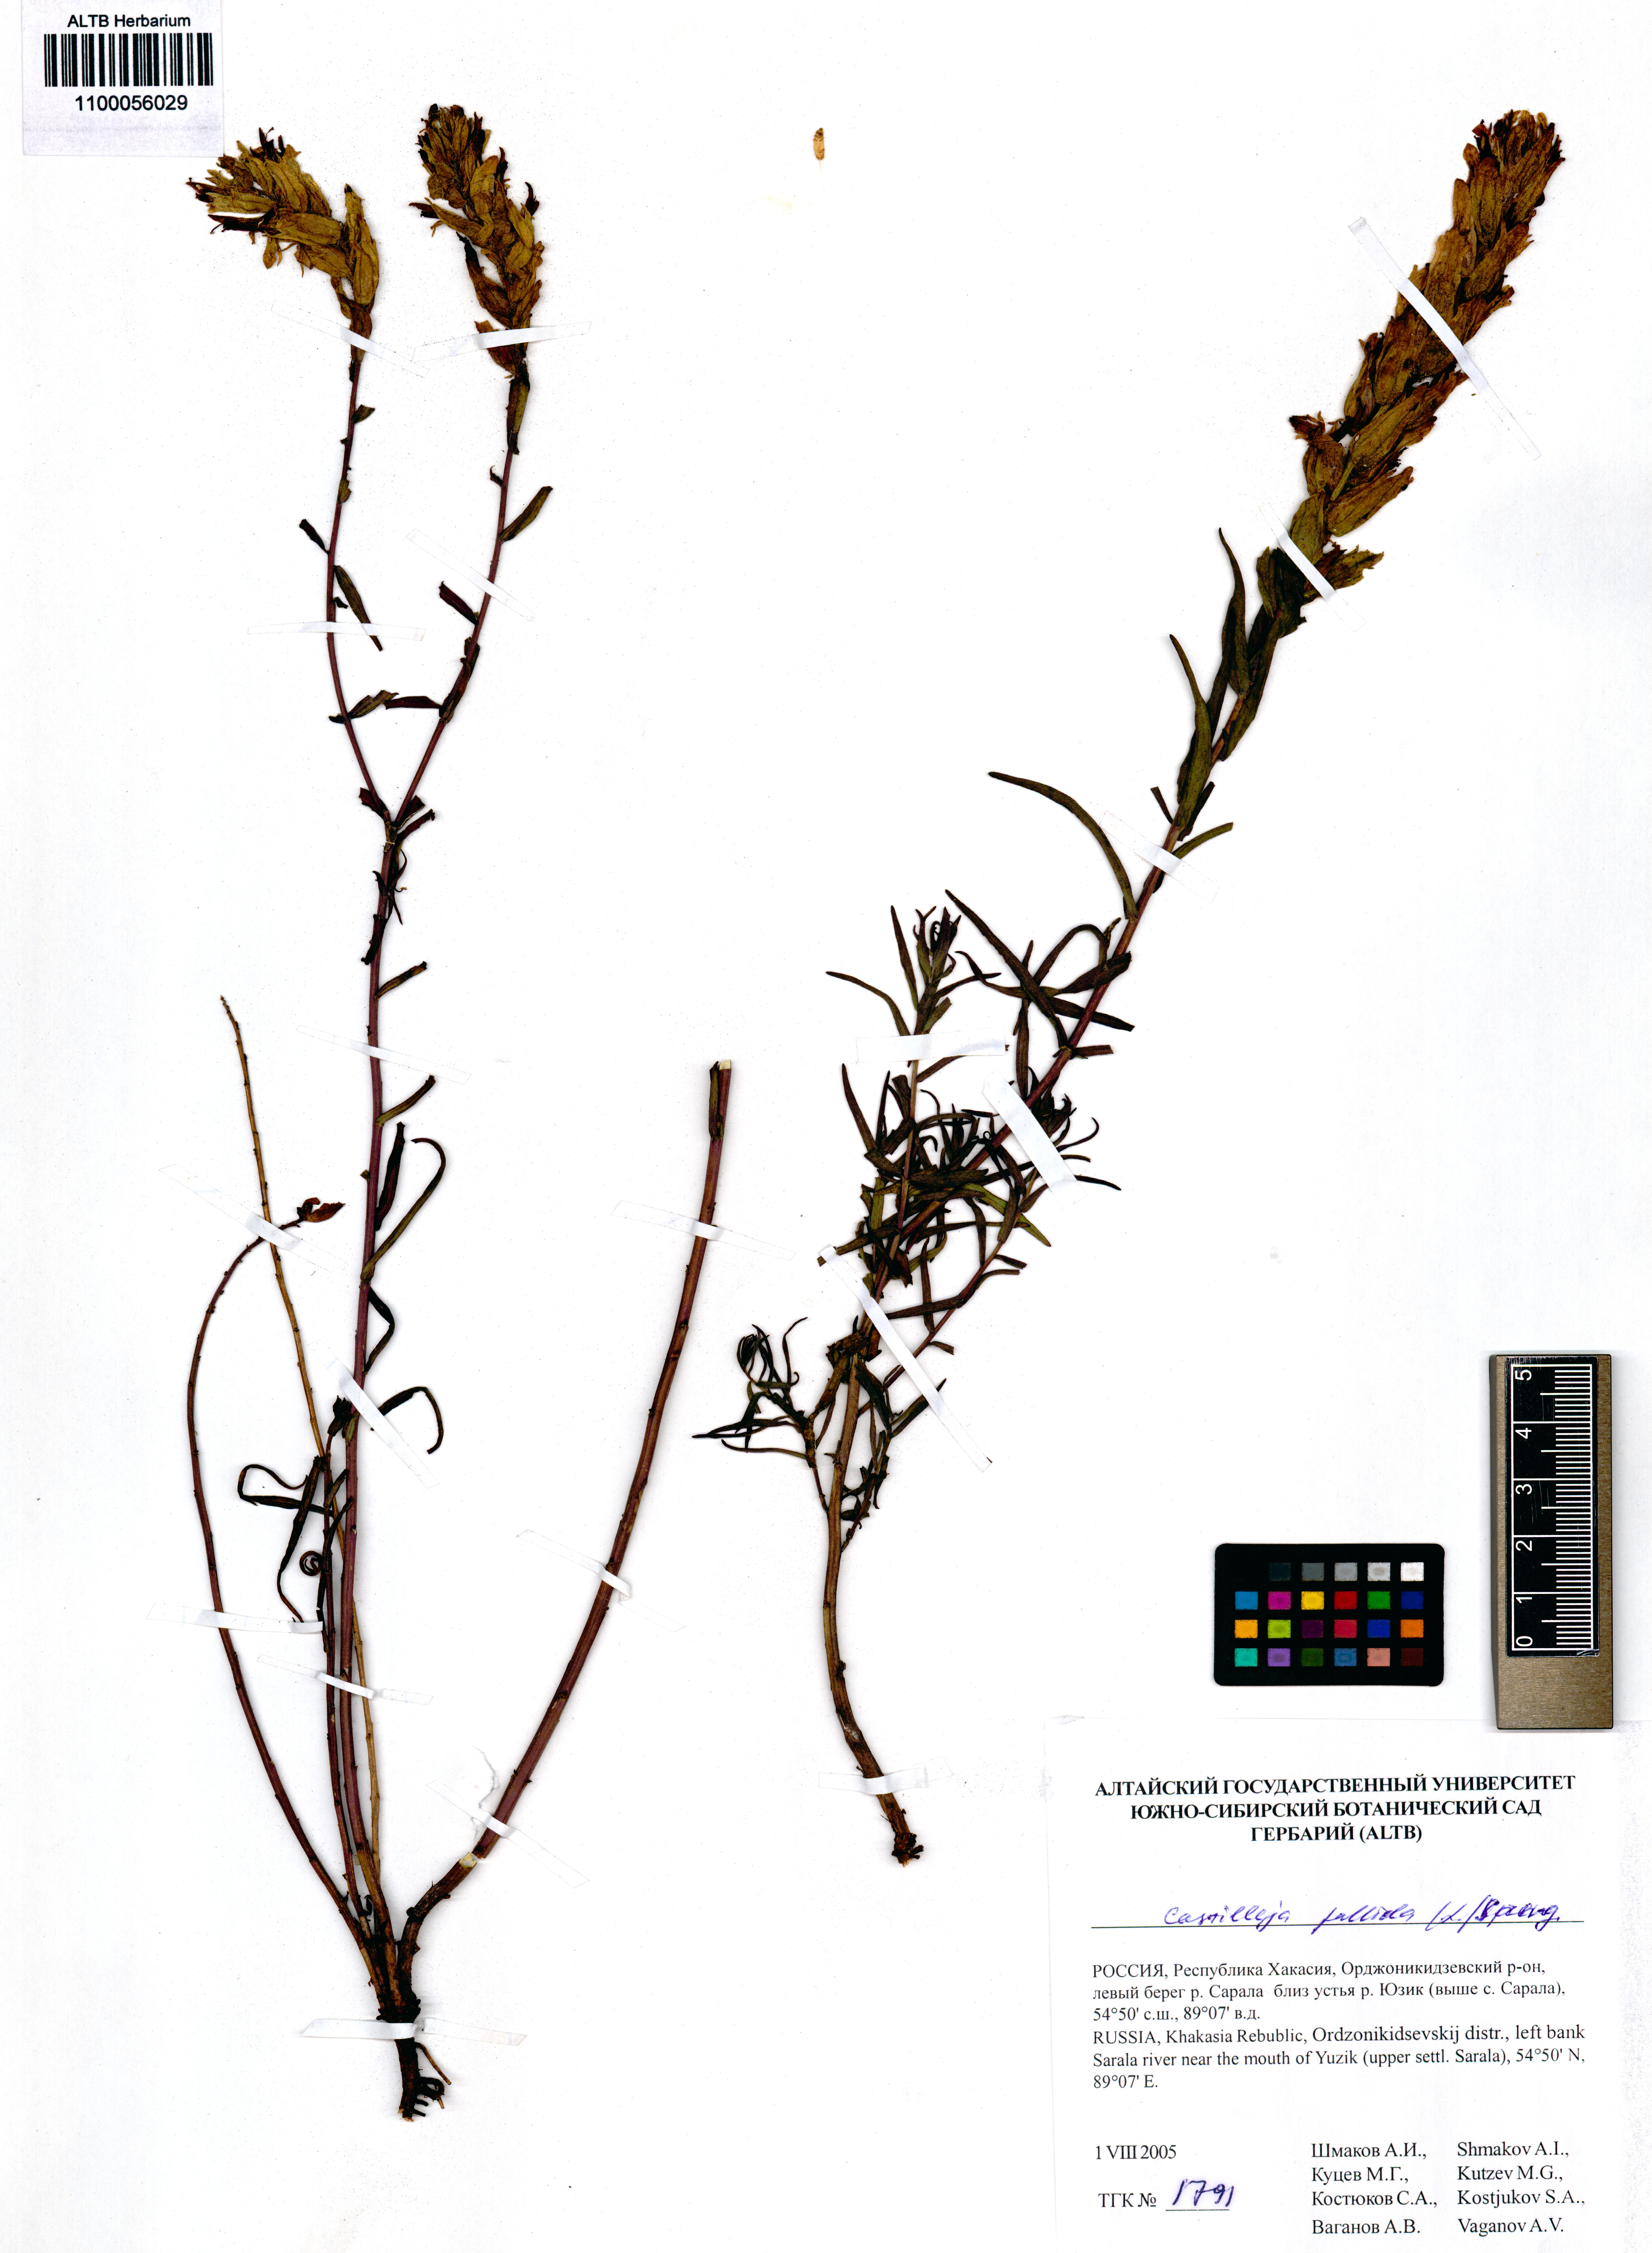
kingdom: Plantae
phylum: Tracheophyta
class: Magnoliopsida
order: Lamiales
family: Orobanchaceae
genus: Castilleja
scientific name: Castilleja pallida
